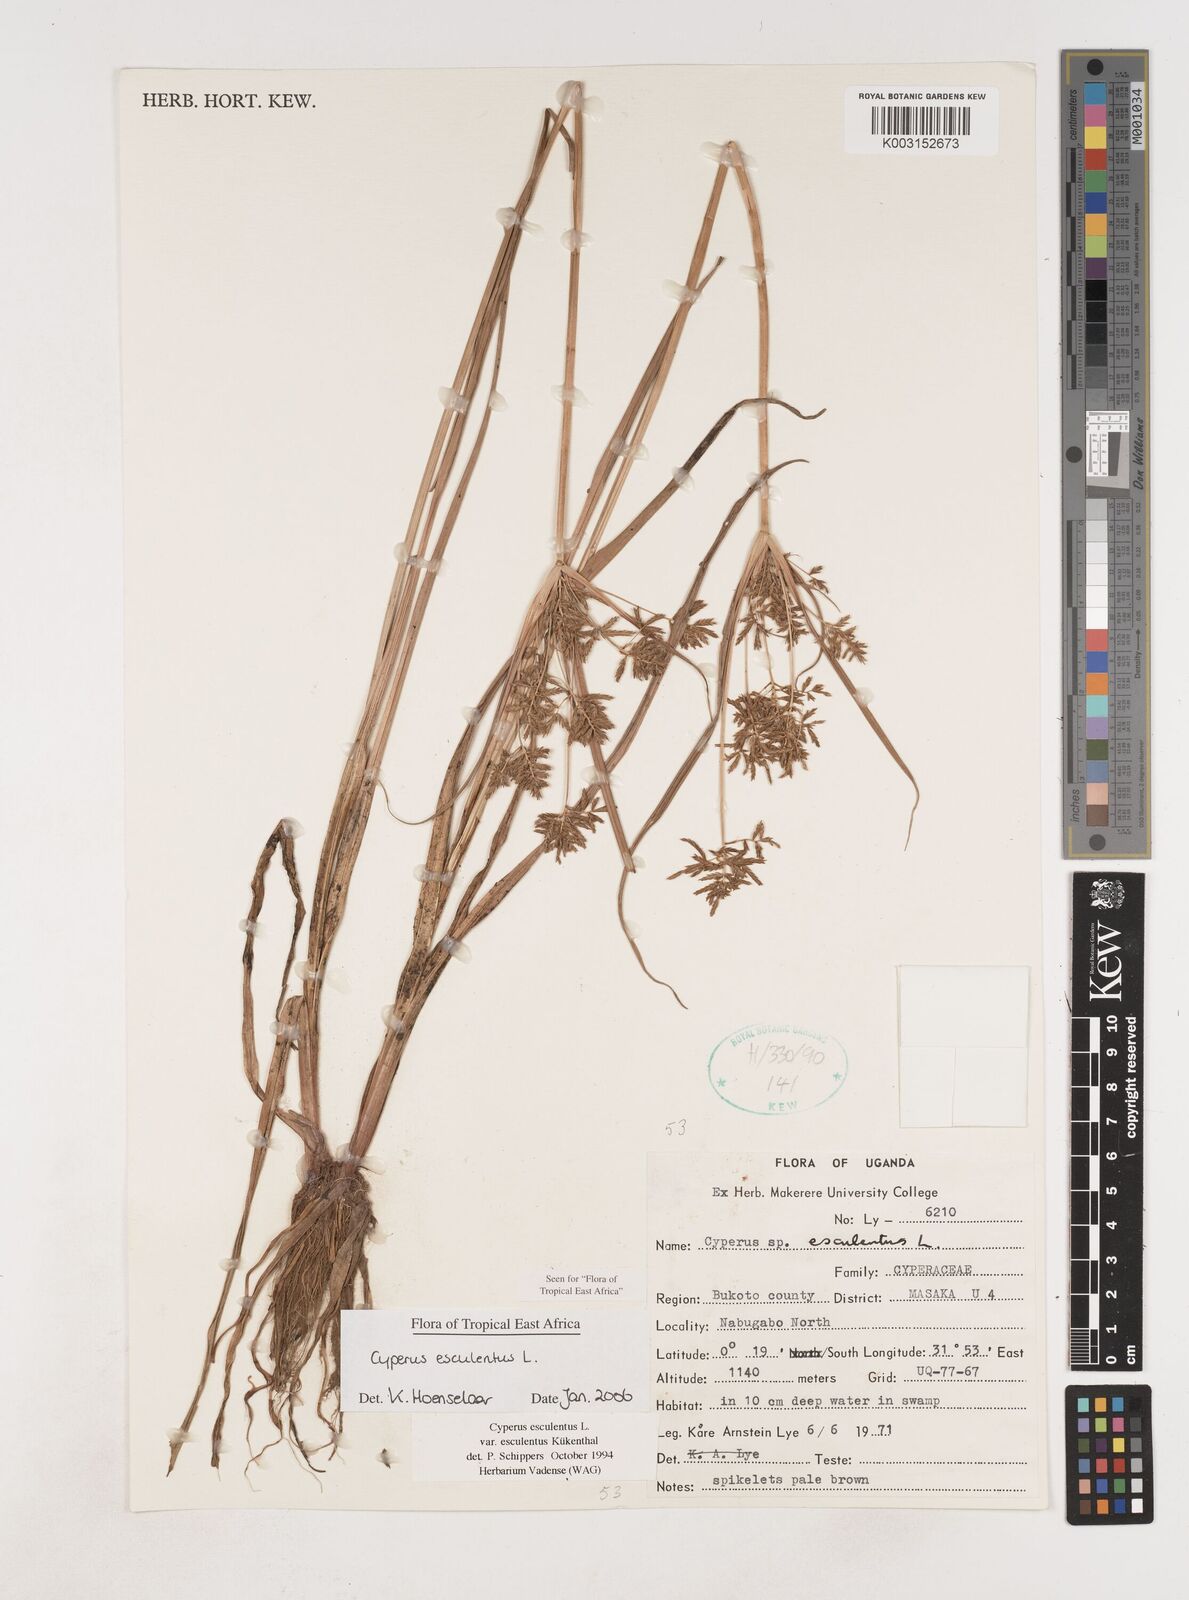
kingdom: Plantae
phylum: Tracheophyta
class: Liliopsida
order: Poales
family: Cyperaceae
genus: Cyperus
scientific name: Cyperus esculentus
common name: Yellow nutsedge
